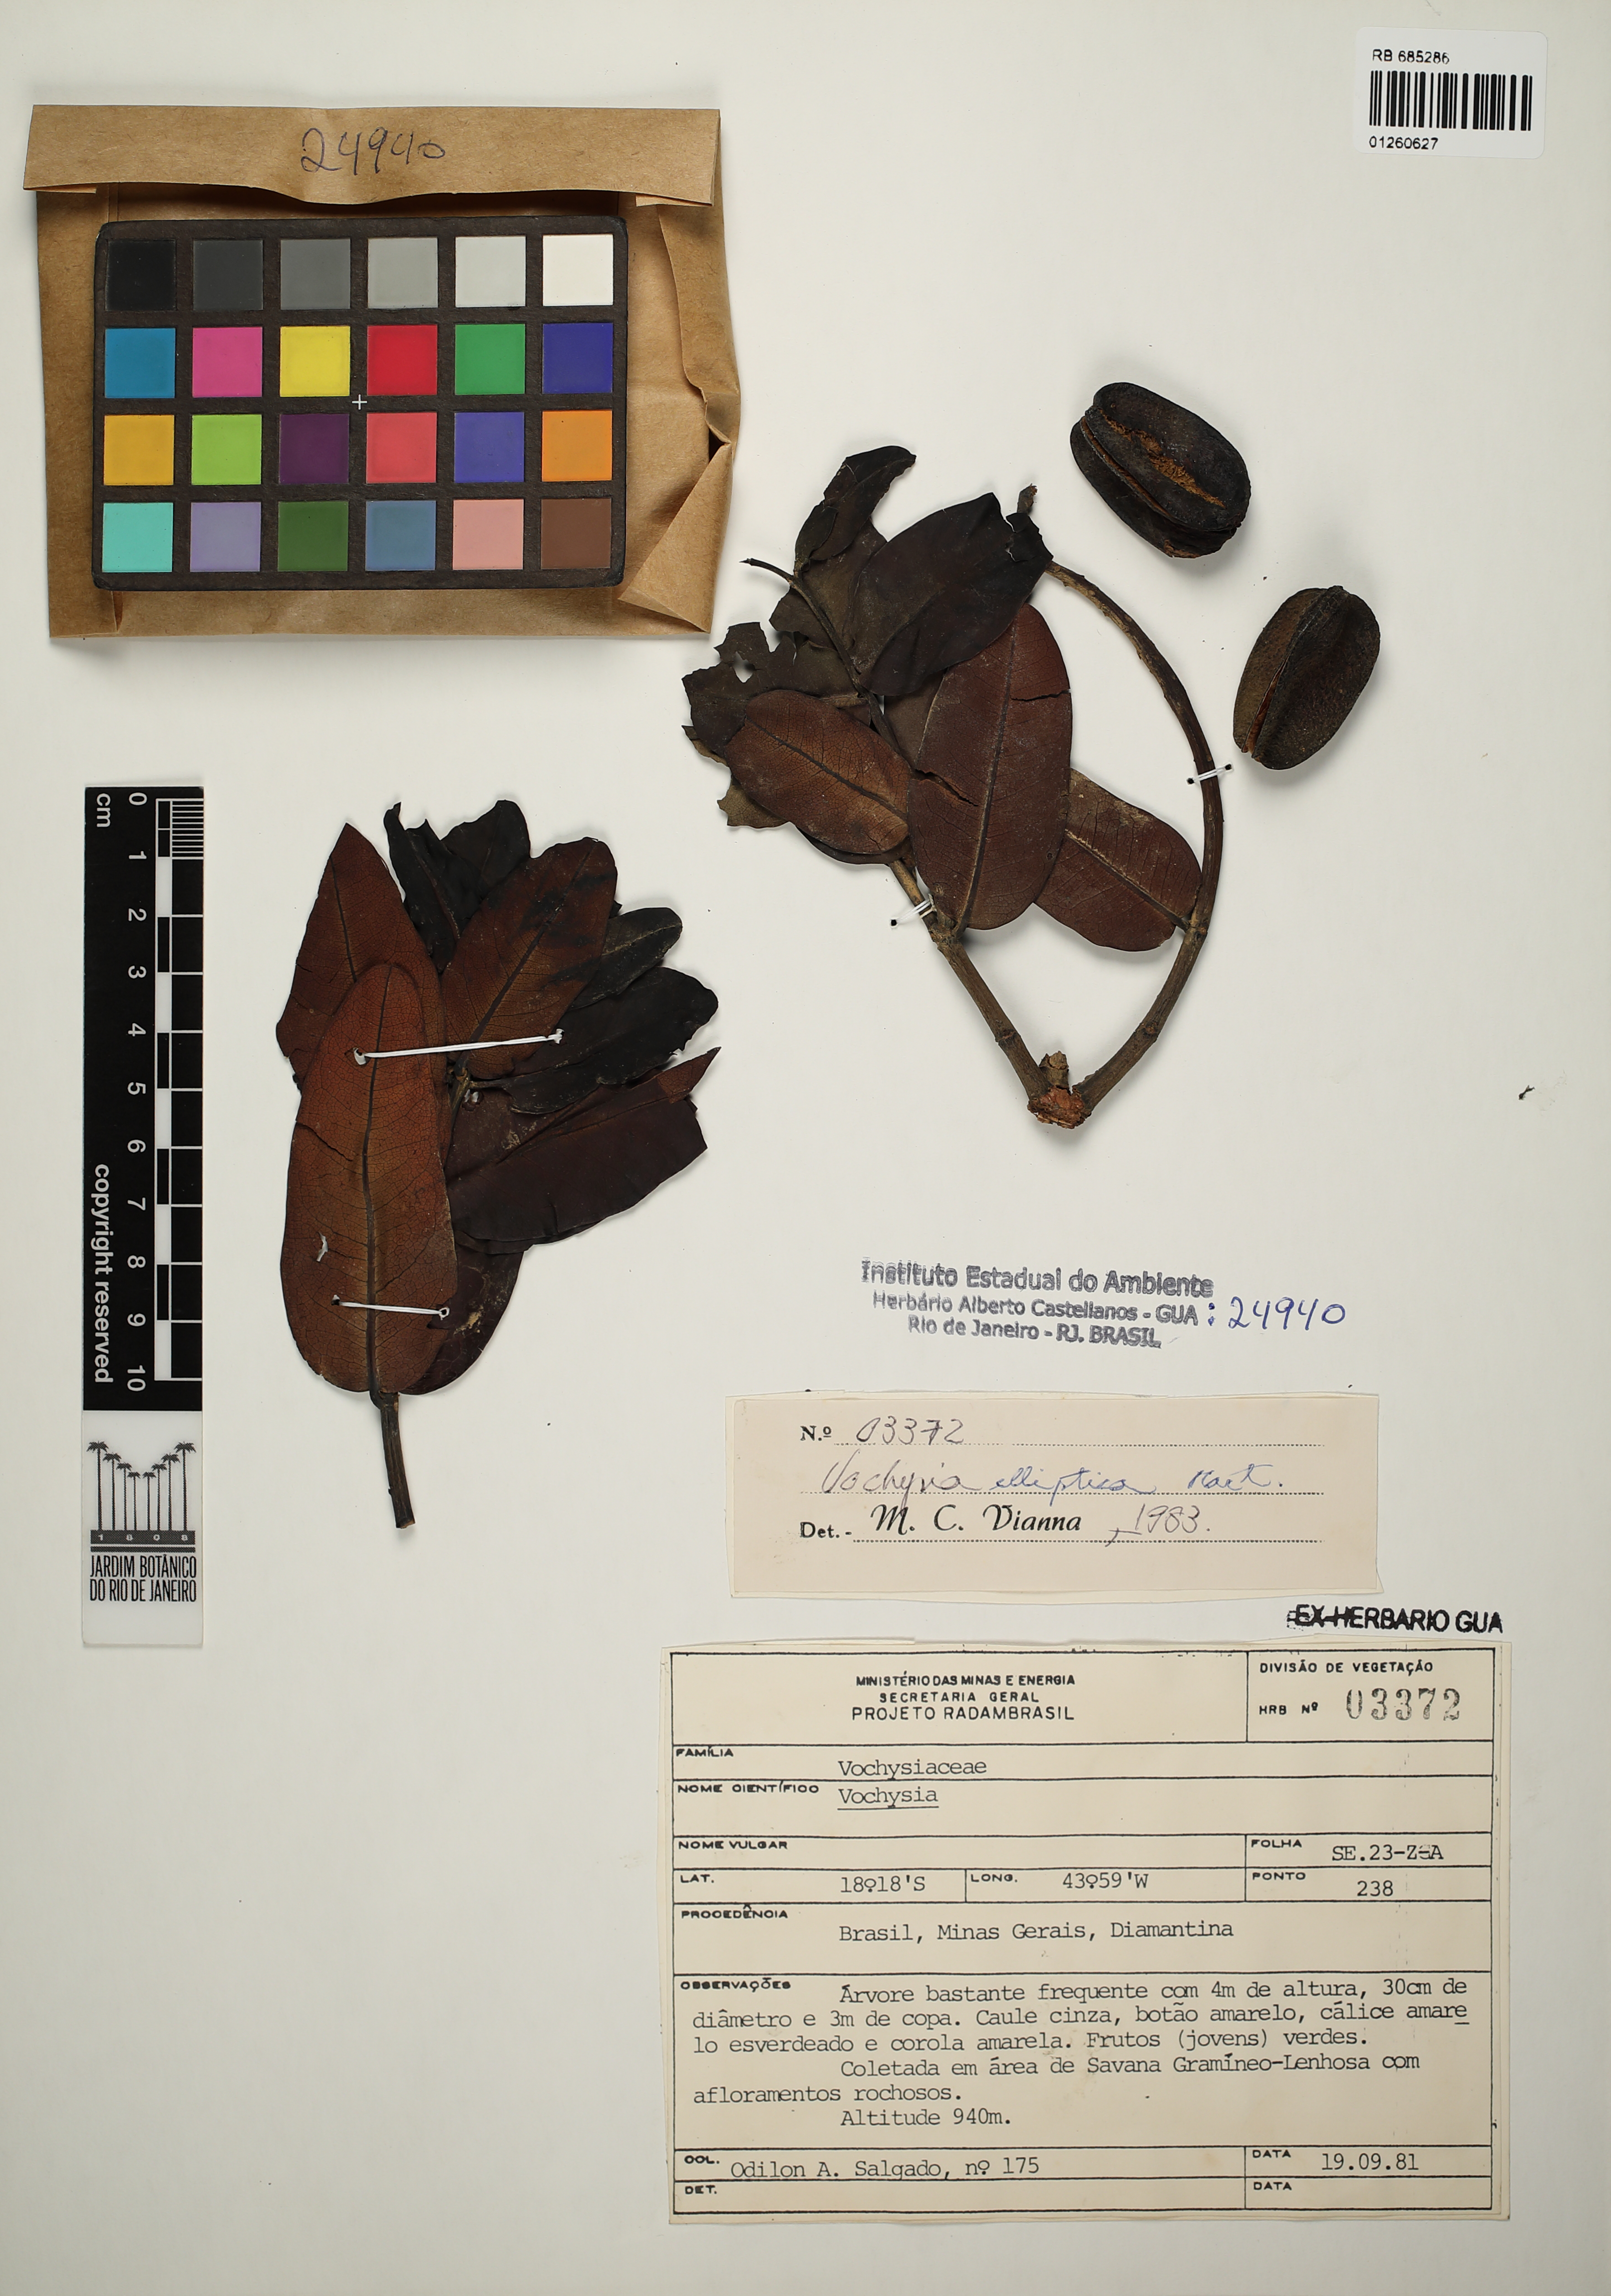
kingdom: Plantae
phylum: Tracheophyta
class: Magnoliopsida
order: Myrtales
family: Vochysiaceae
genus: Vochysia
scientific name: Vochysia elliptica
